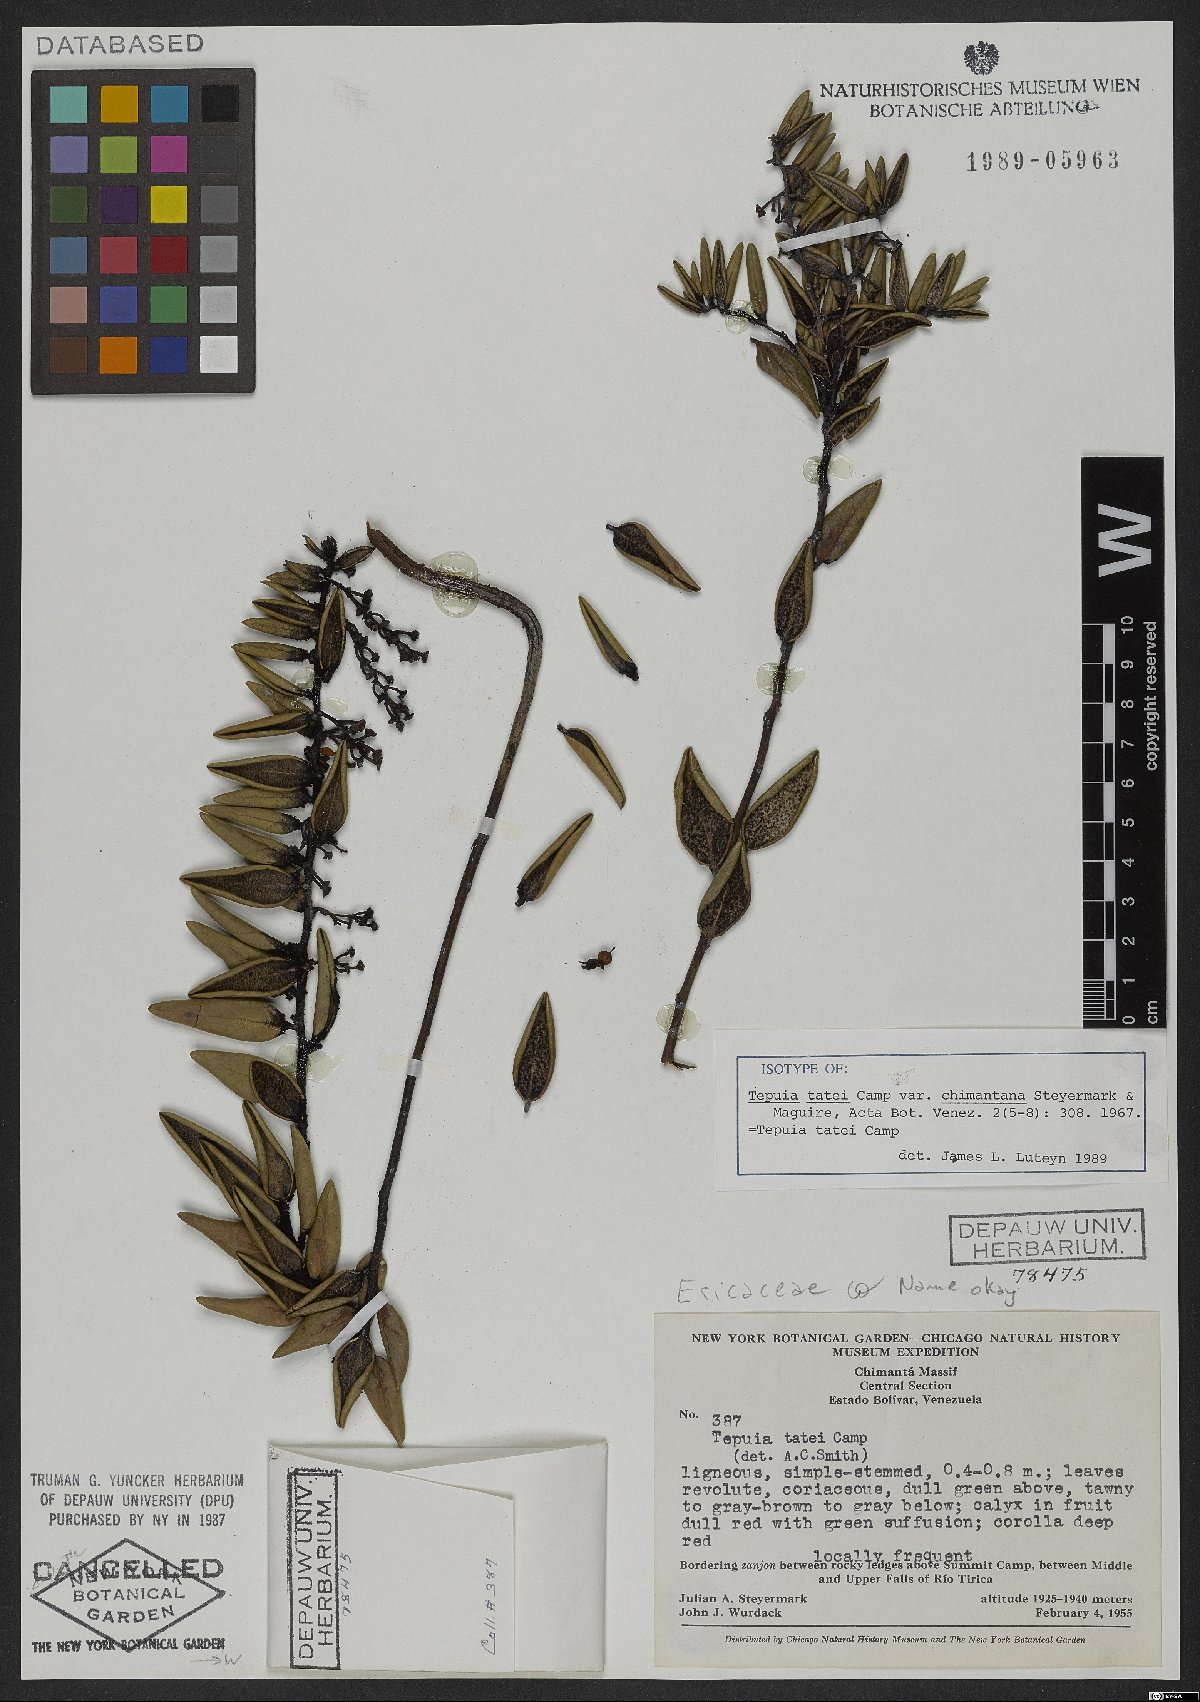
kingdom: Plantae
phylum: Tracheophyta
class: Magnoliopsida
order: Ericales
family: Ericaceae
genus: Gaultheria
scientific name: Gaultheria campii
